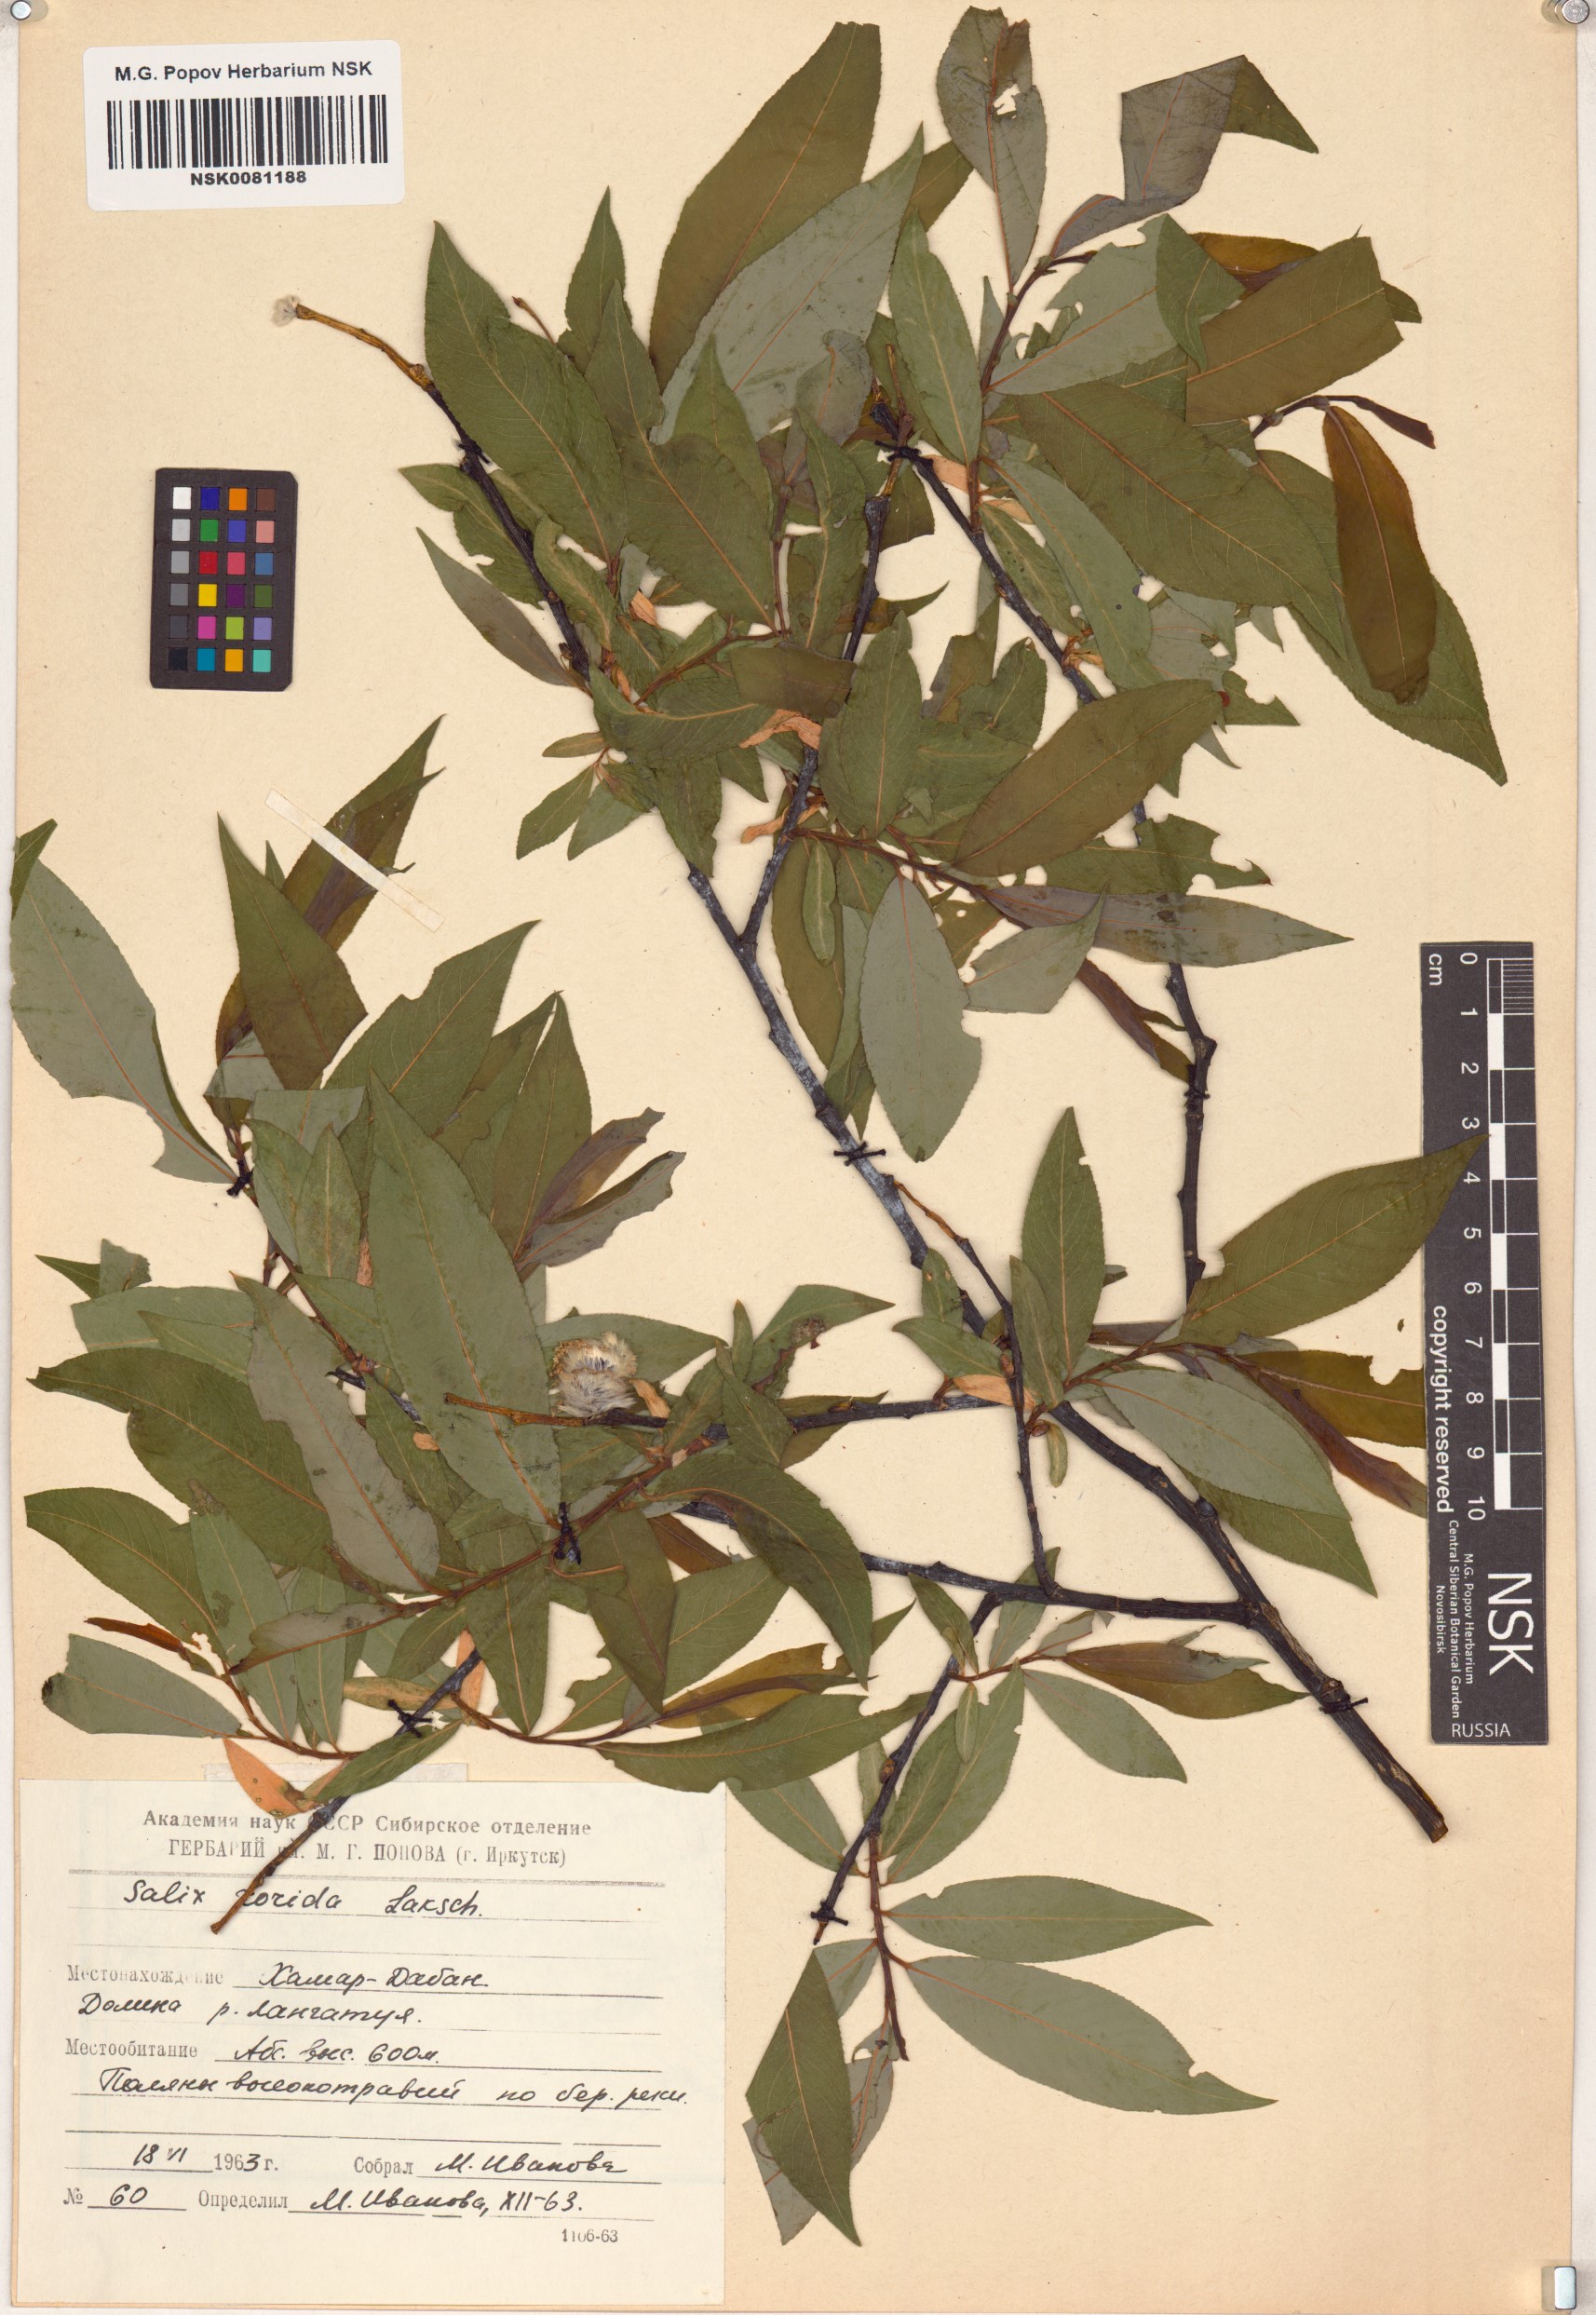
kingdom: Plantae
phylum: Tracheophyta
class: Magnoliopsida
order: Malpighiales
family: Salicaceae
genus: Salix
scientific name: Salix rorida
